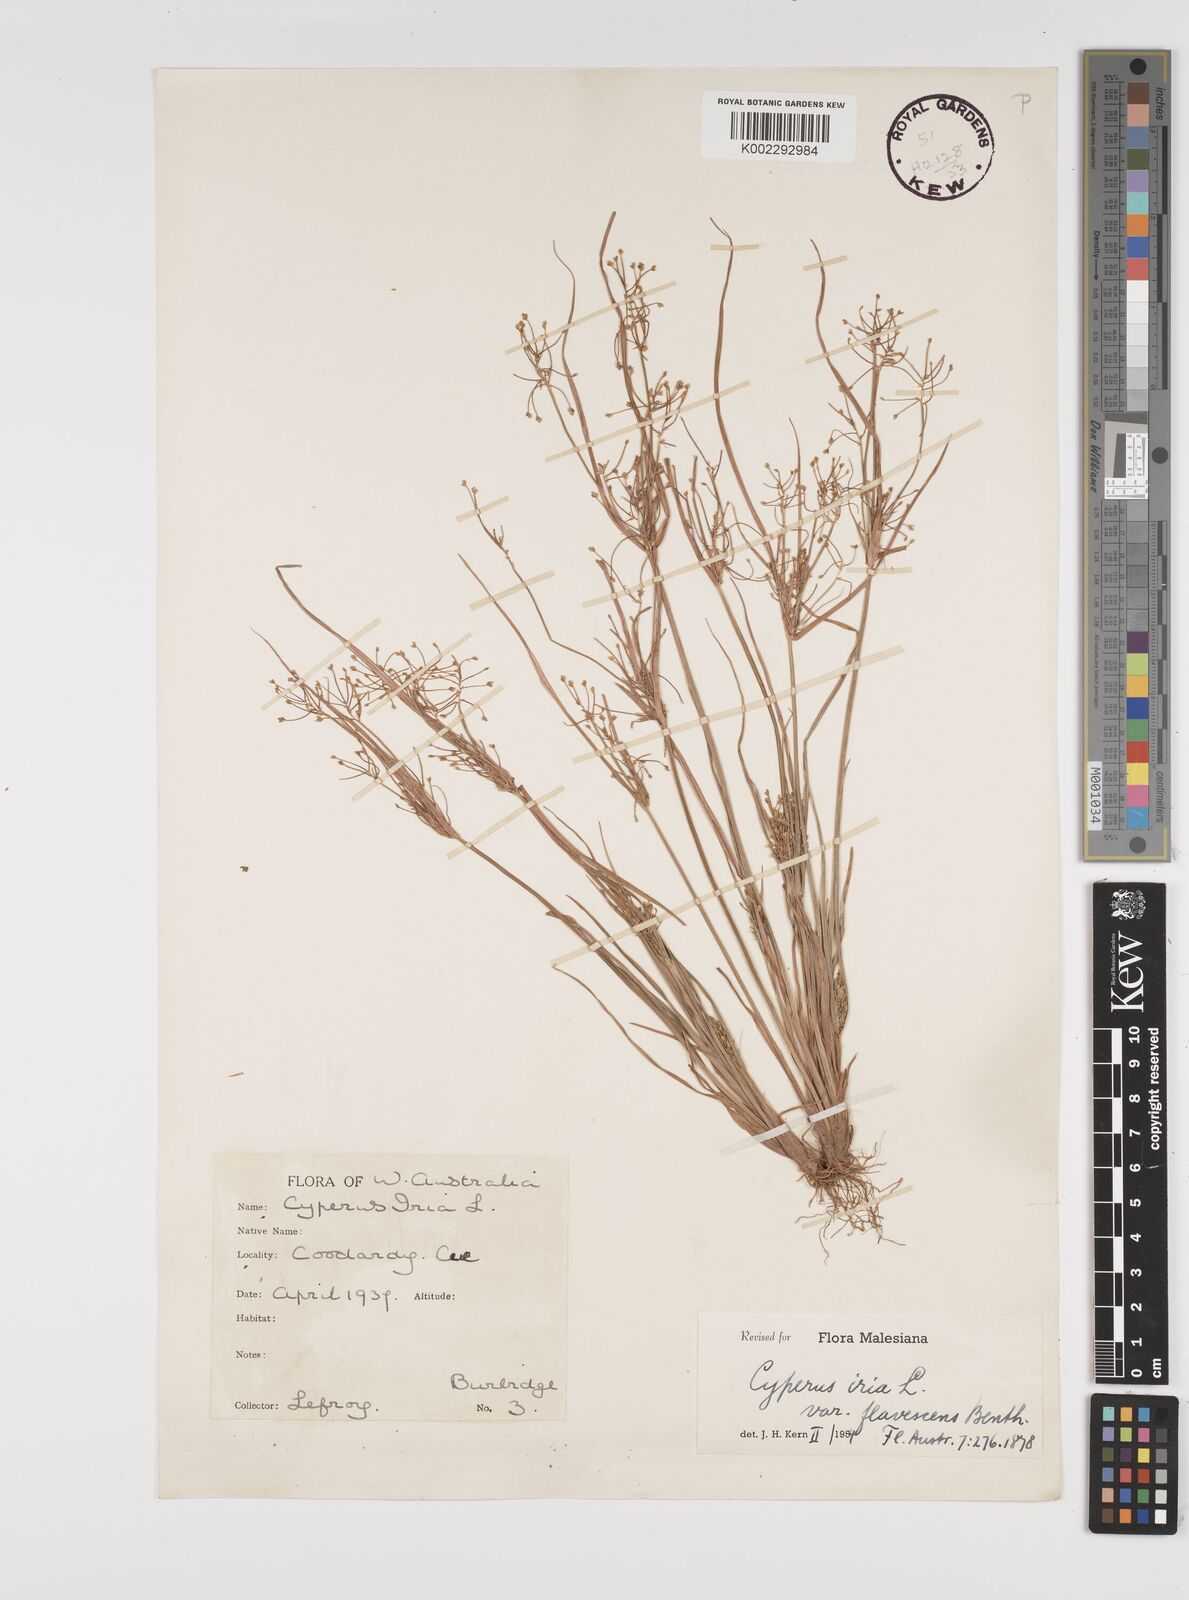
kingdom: Plantae
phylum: Tracheophyta
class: Liliopsida
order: Poales
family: Cyperaceae
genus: Cyperus
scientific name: Cyperus iria
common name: Ricefield flatsedge
